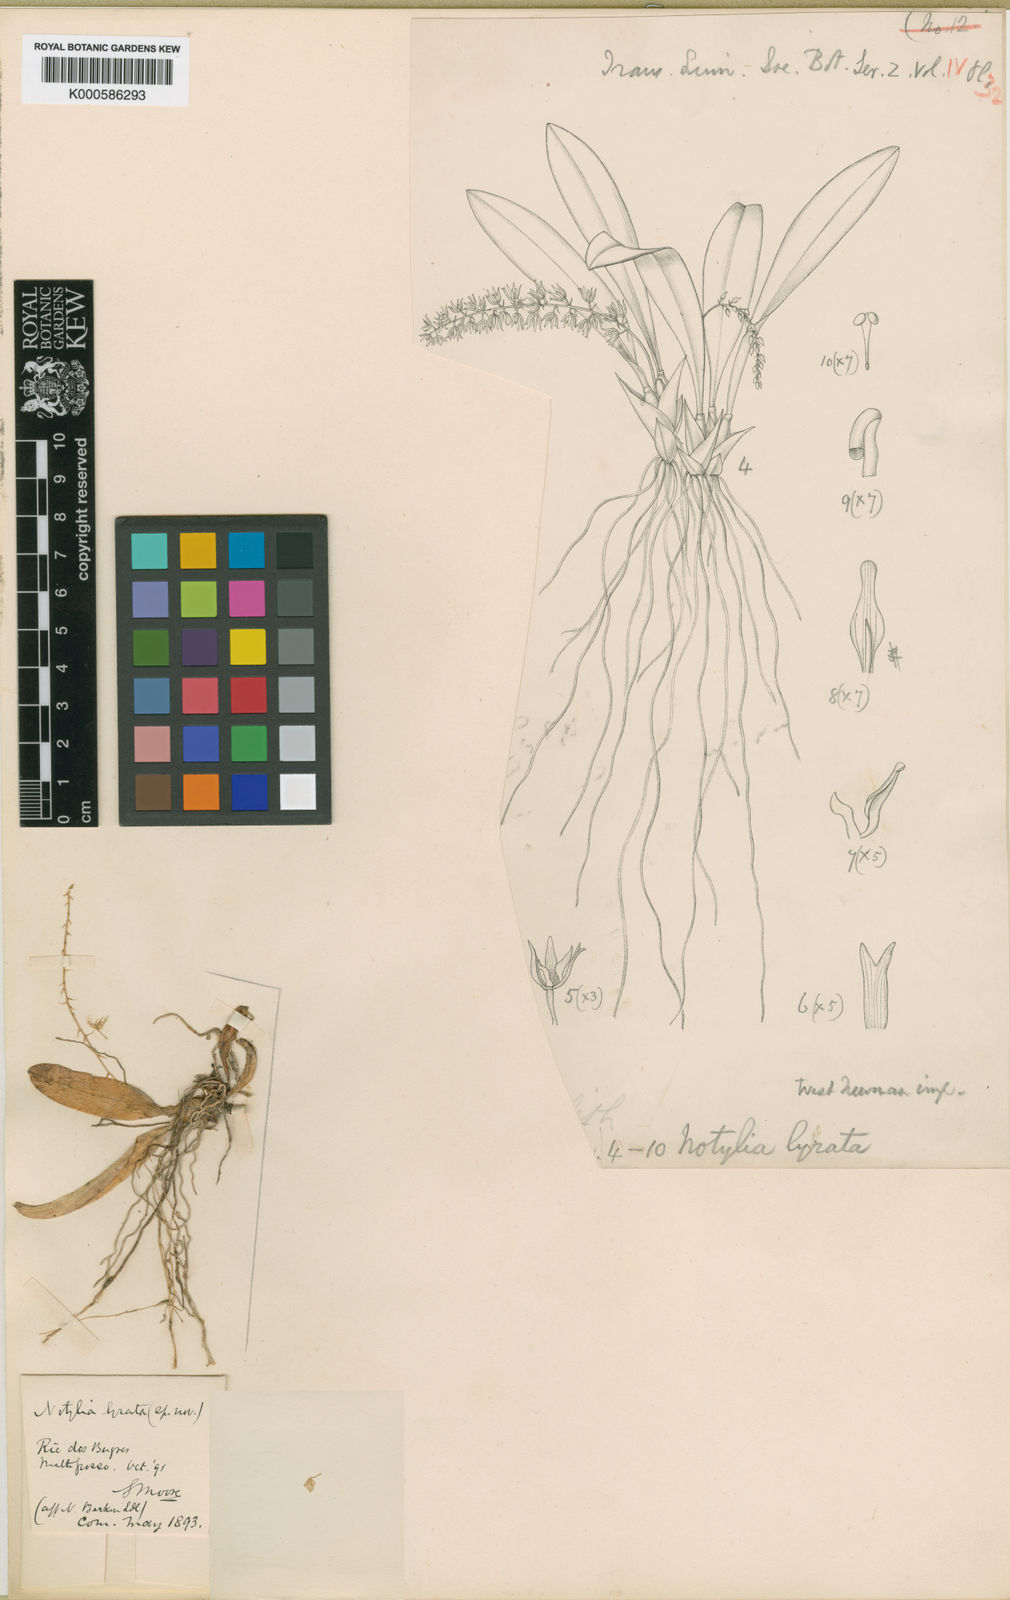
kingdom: Plantae
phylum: Tracheophyta
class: Liliopsida
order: Asparagales
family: Orchidaceae
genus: Notylia
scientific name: Notylia lyrata
